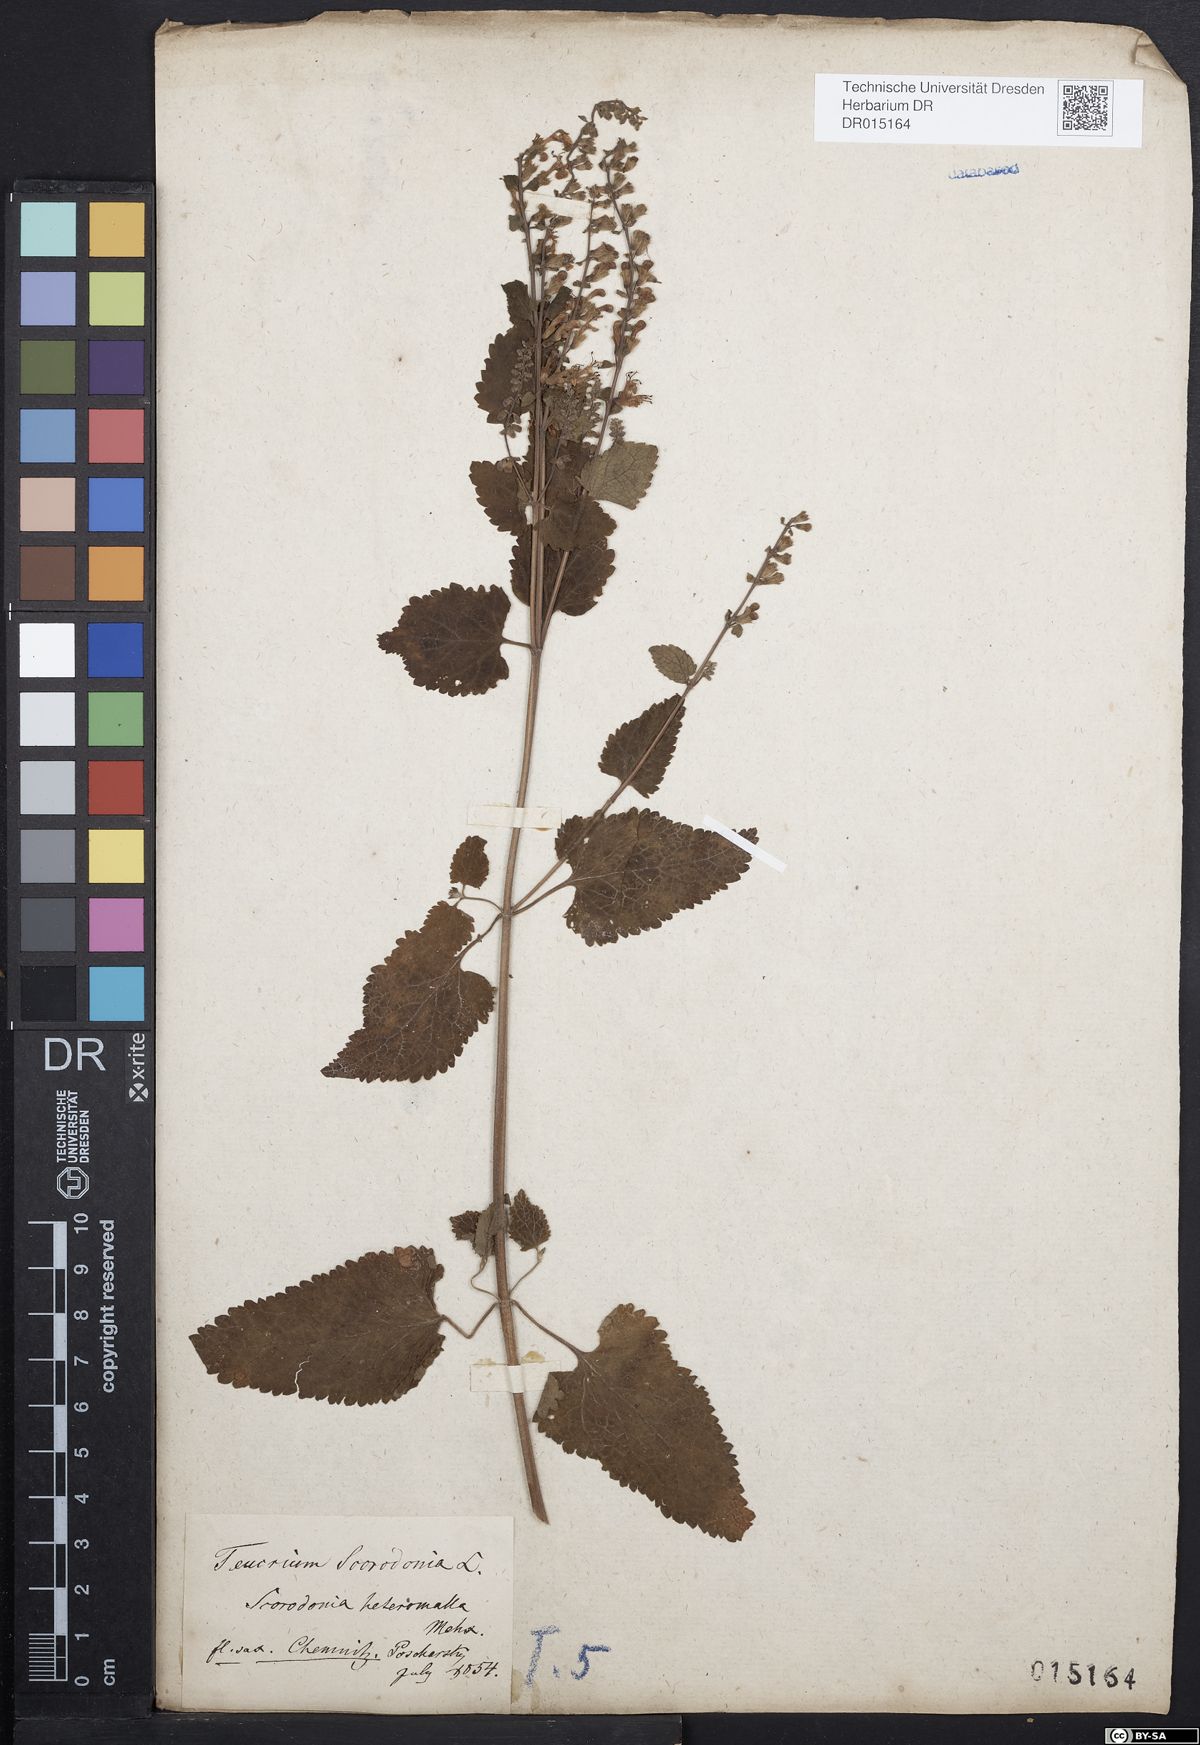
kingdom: Plantae
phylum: Tracheophyta
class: Magnoliopsida
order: Lamiales
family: Lamiaceae
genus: Teucrium
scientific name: Teucrium scorodonia
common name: Woodland germander
